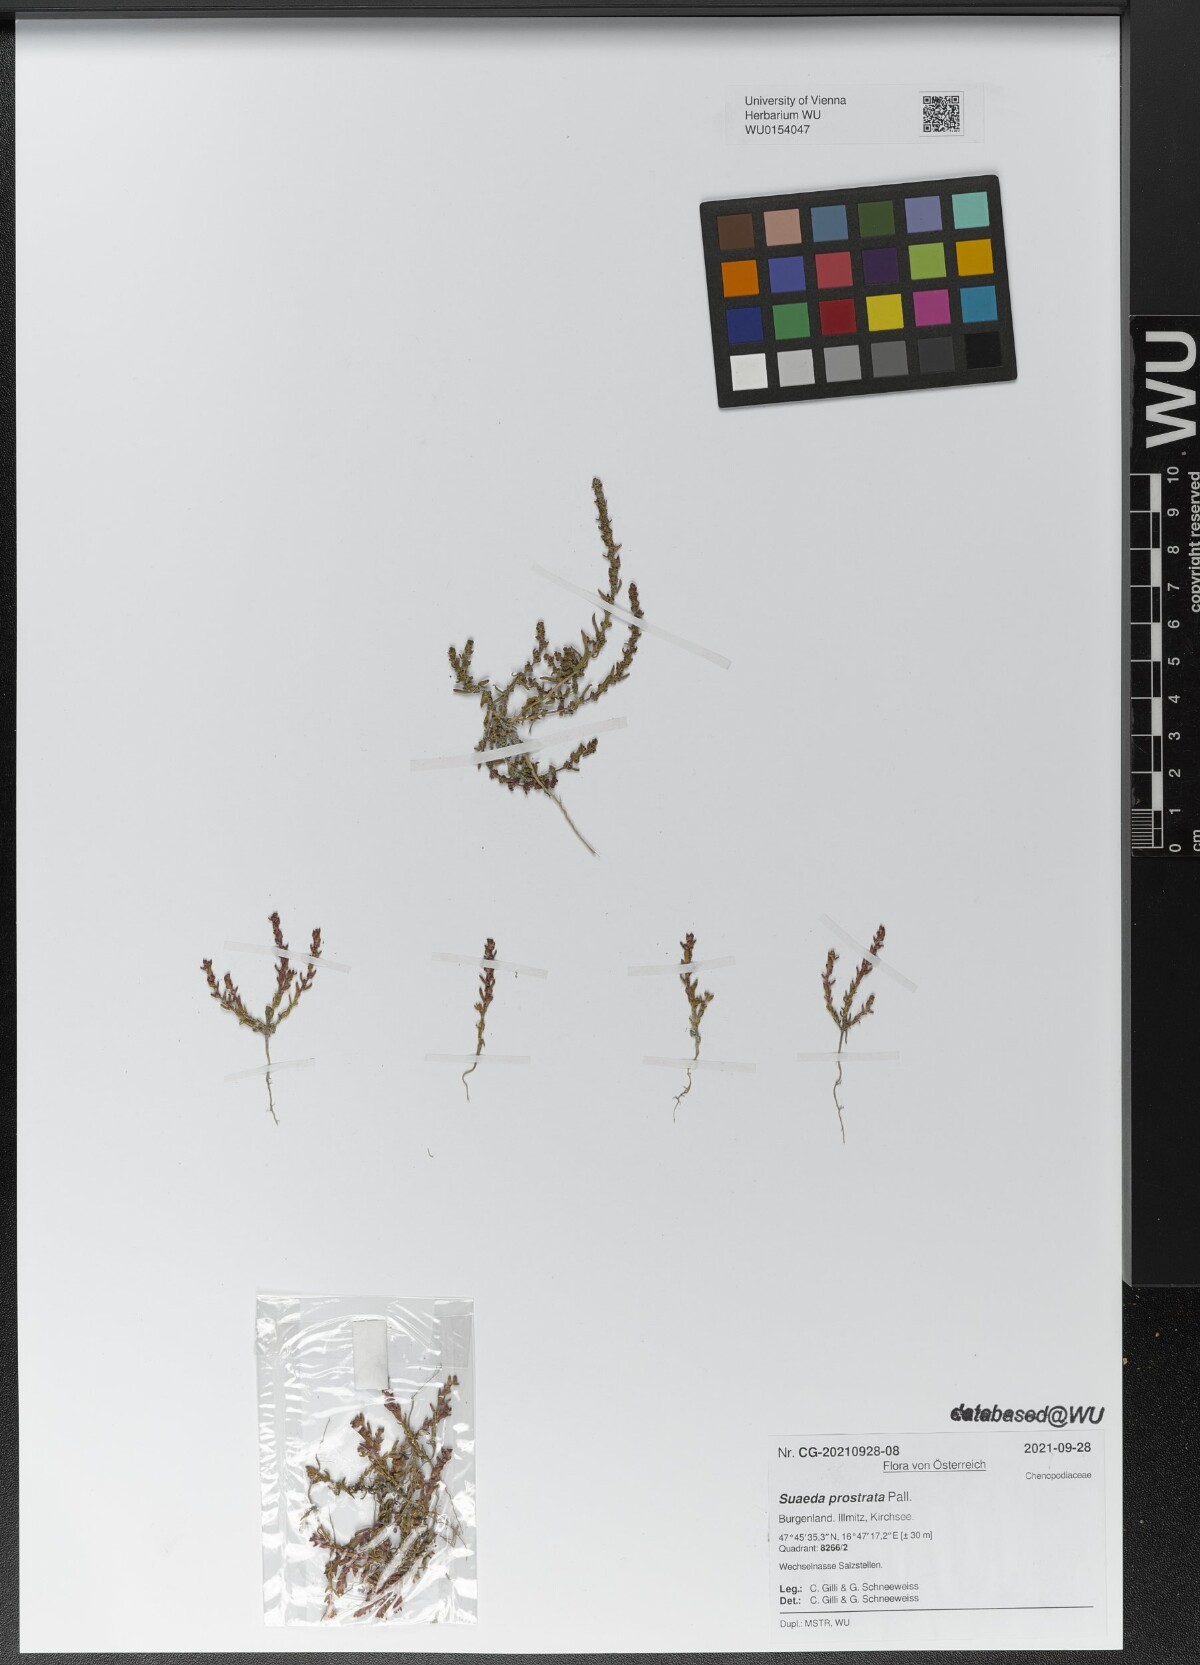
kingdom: Plantae
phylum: Tracheophyta
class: Magnoliopsida
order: Caryophyllales
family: Amaranthaceae
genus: Suaeda
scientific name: Suaeda prostrata
